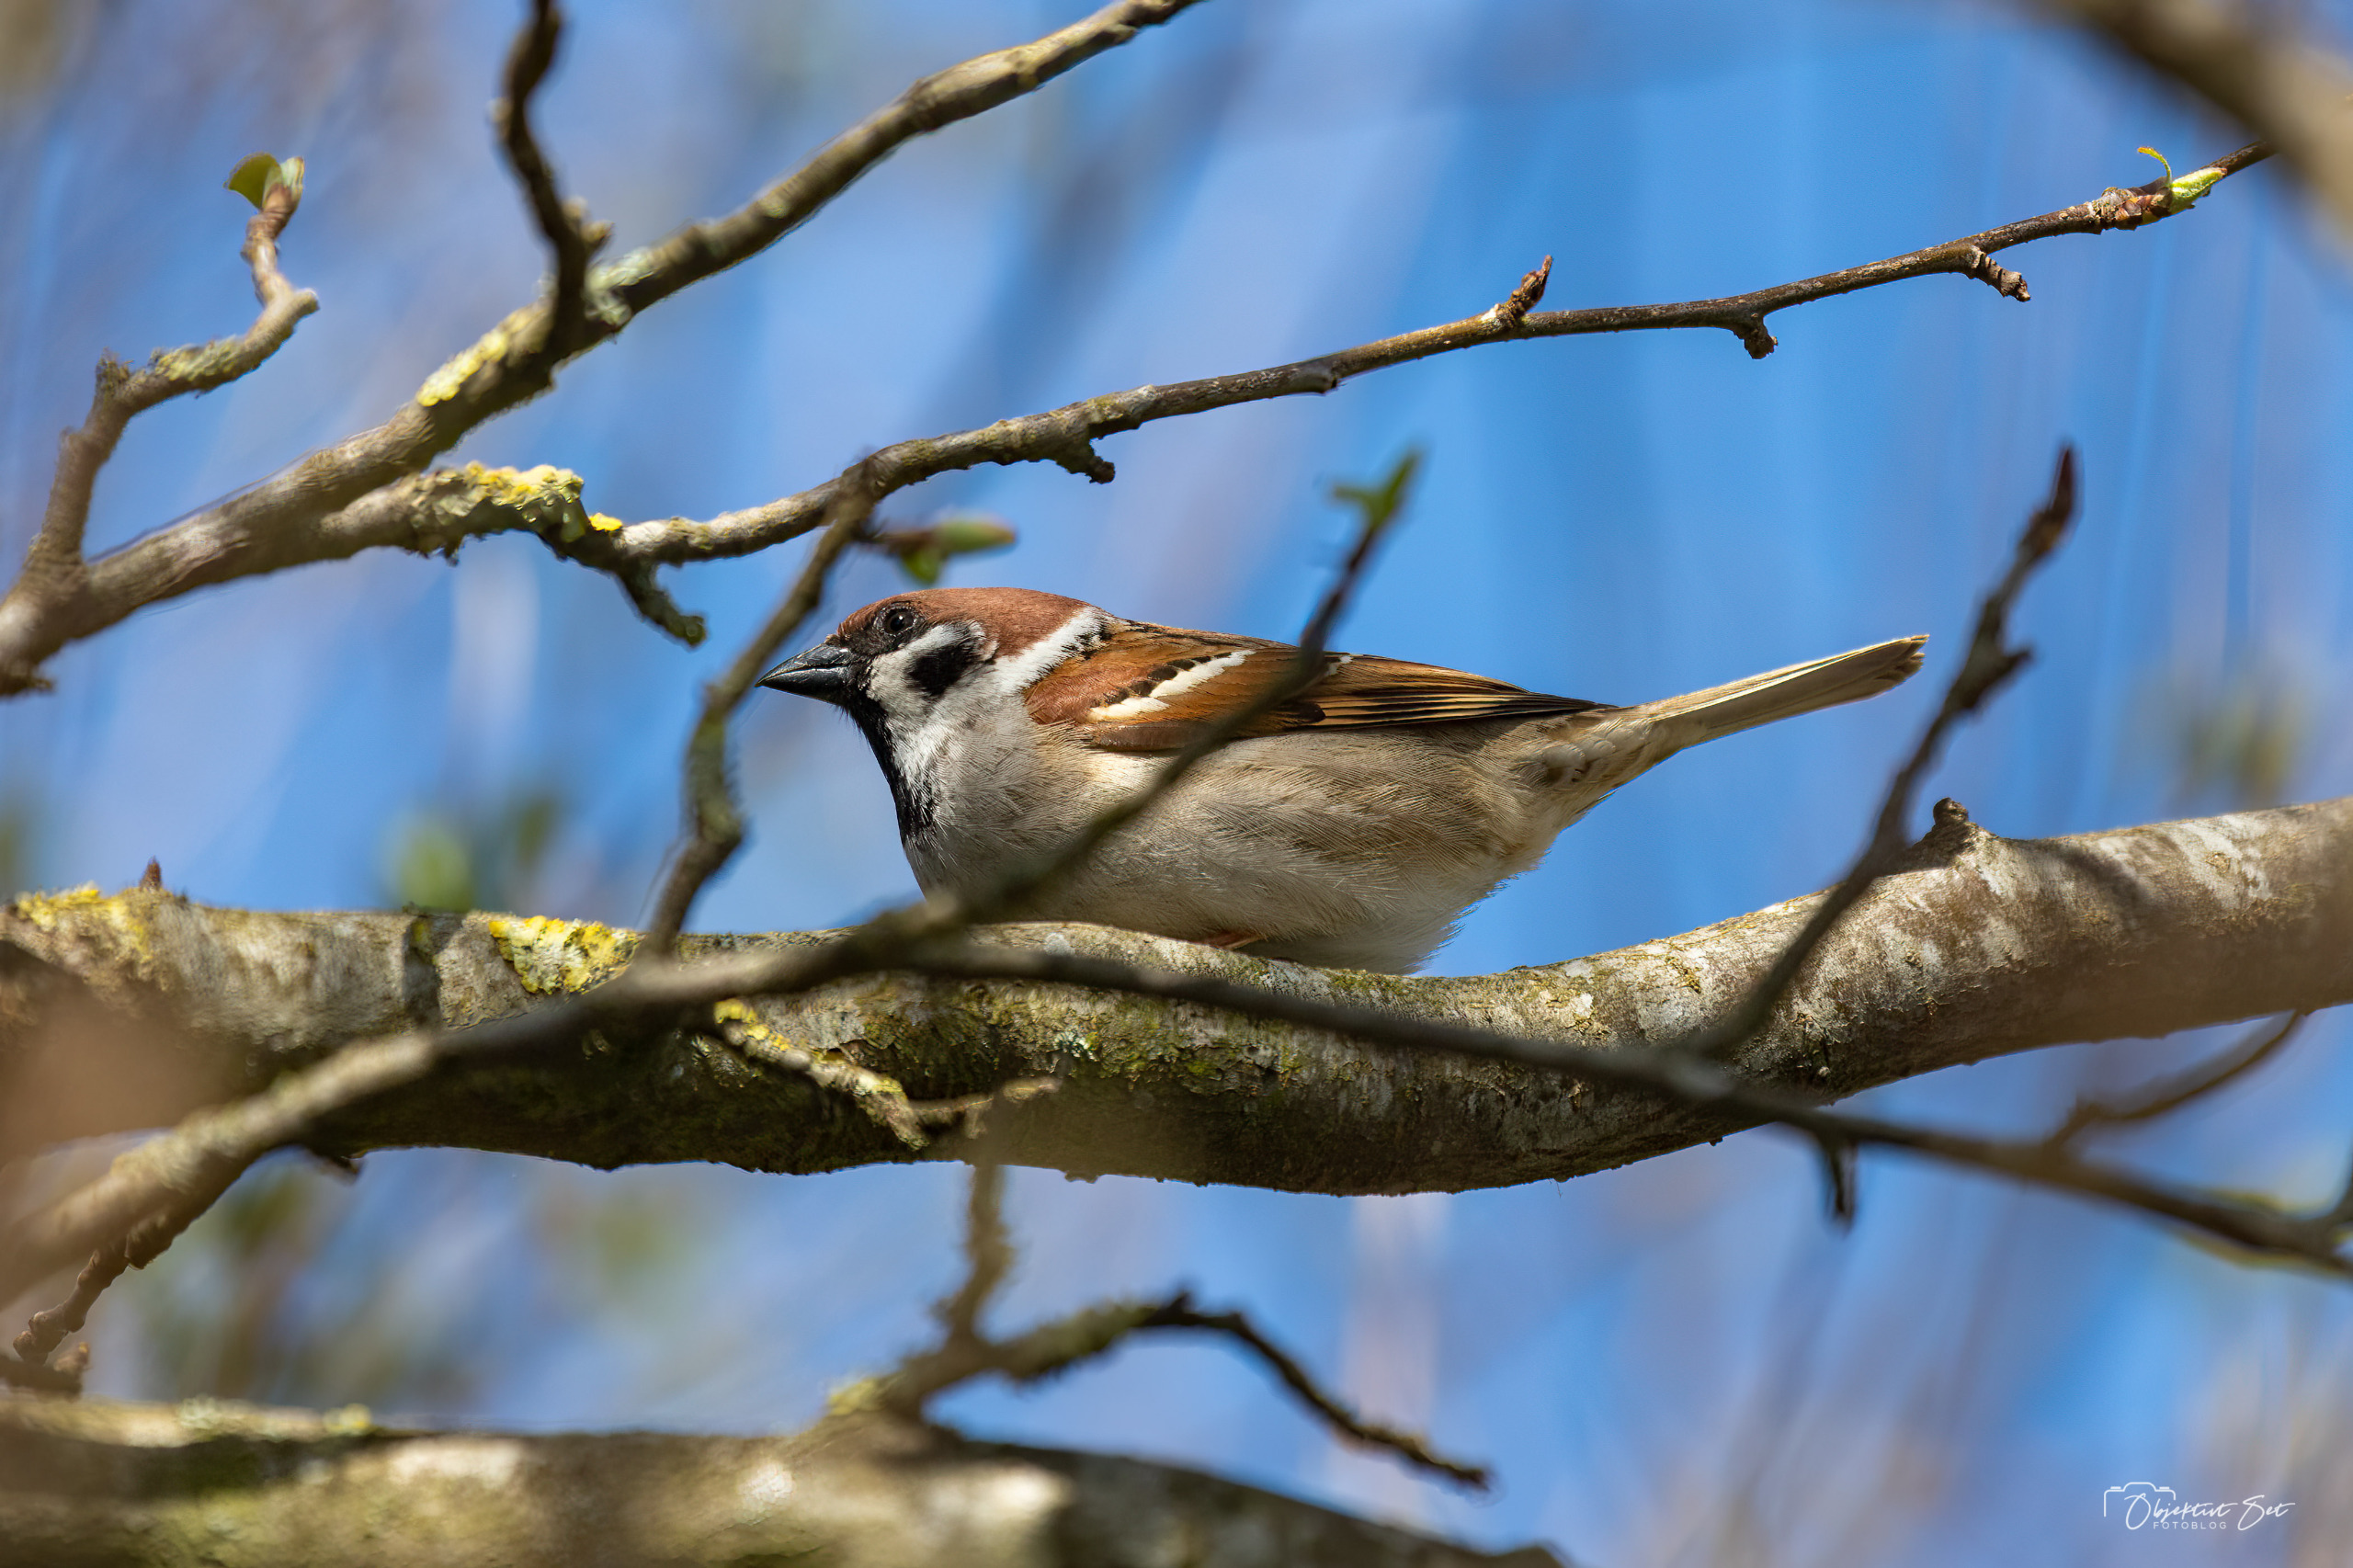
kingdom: Animalia
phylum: Chordata
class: Aves
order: Passeriformes
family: Passeridae
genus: Passer
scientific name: Passer montanus
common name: Skovspurv
